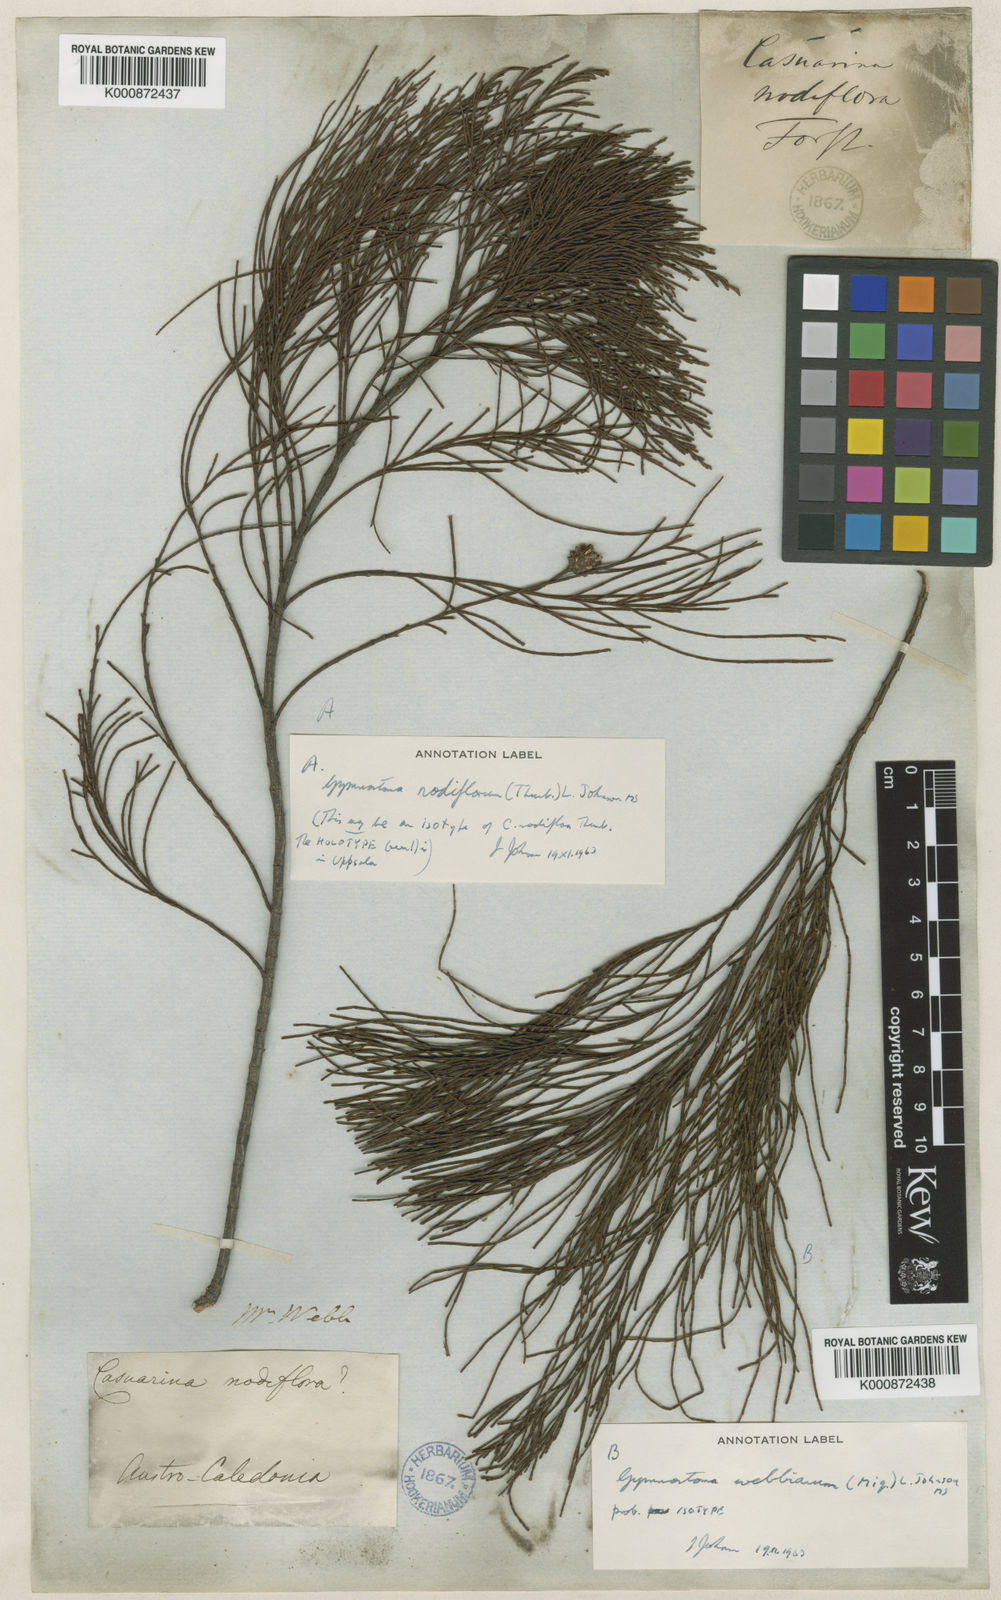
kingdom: Plantae
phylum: Tracheophyta
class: Magnoliopsida
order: Fagales
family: Casuarinaceae
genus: Gymnostoma
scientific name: Gymnostoma webbianum
